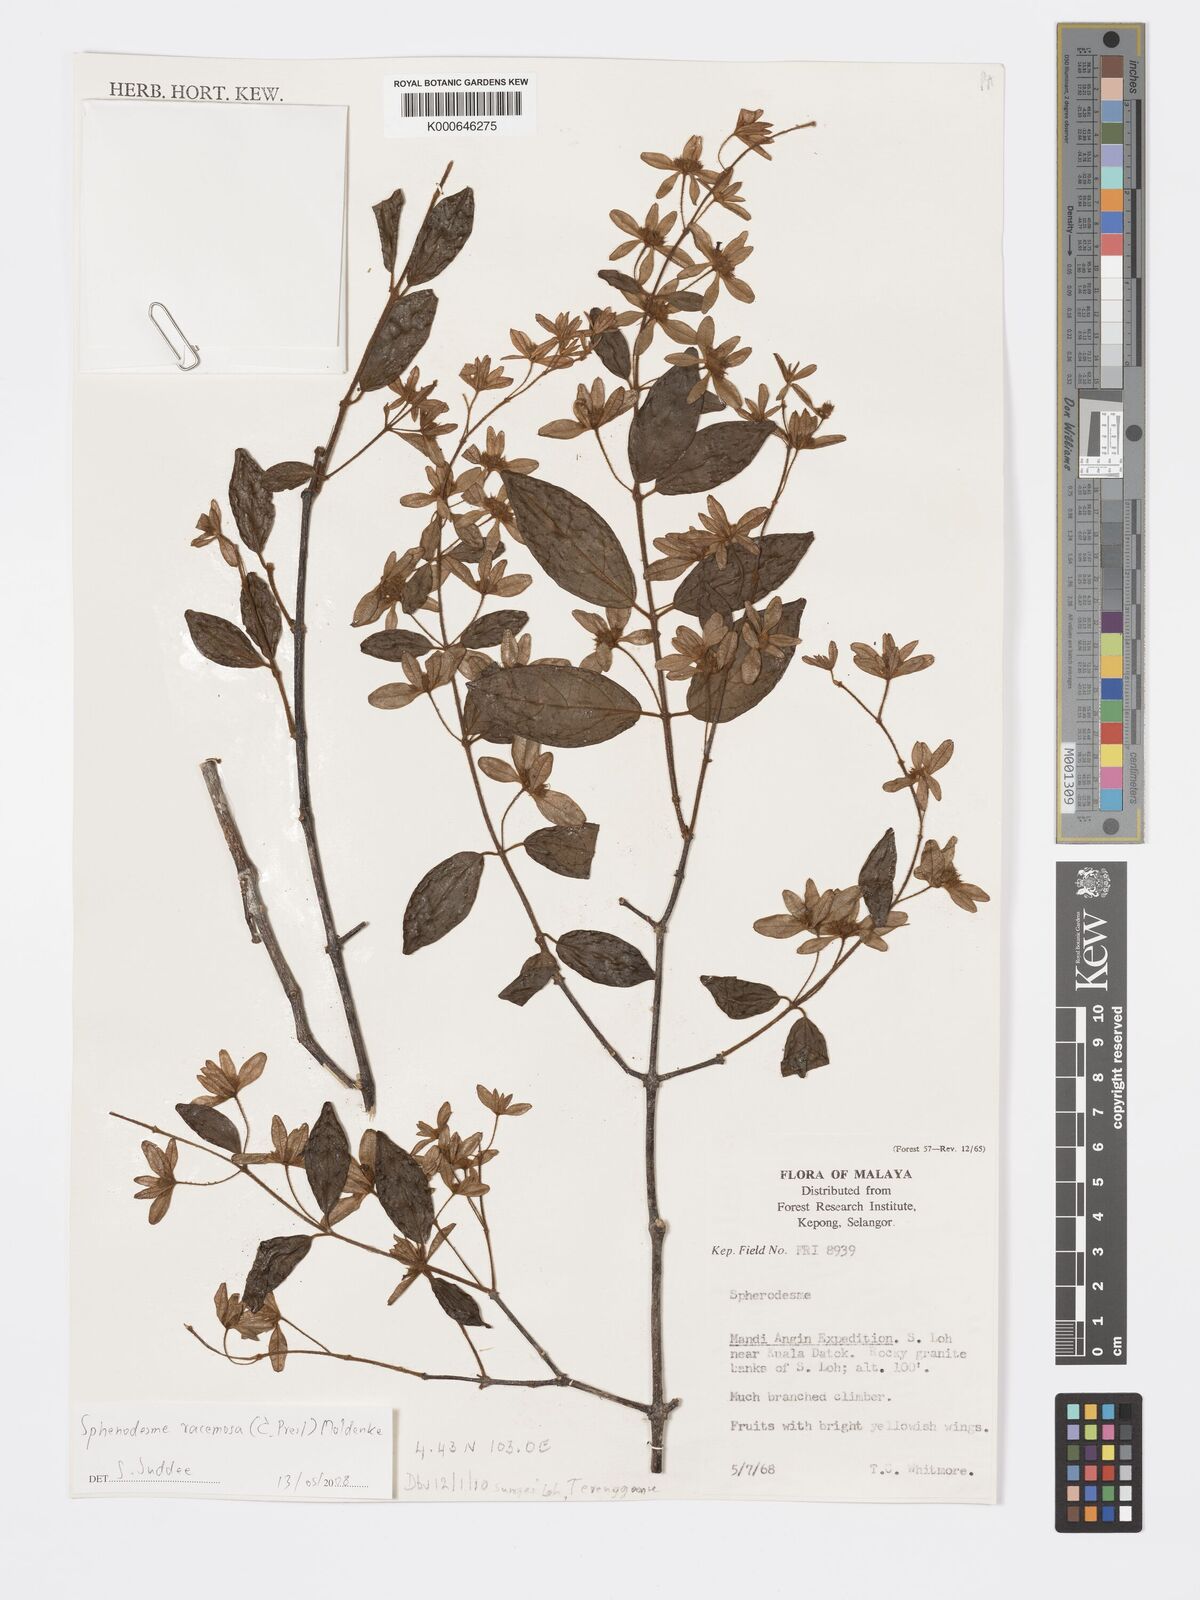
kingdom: Plantae
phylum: Tracheophyta
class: Magnoliopsida
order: Lamiales
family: Lamiaceae
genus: Sphenodesme
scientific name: Sphenodesme racemosa
